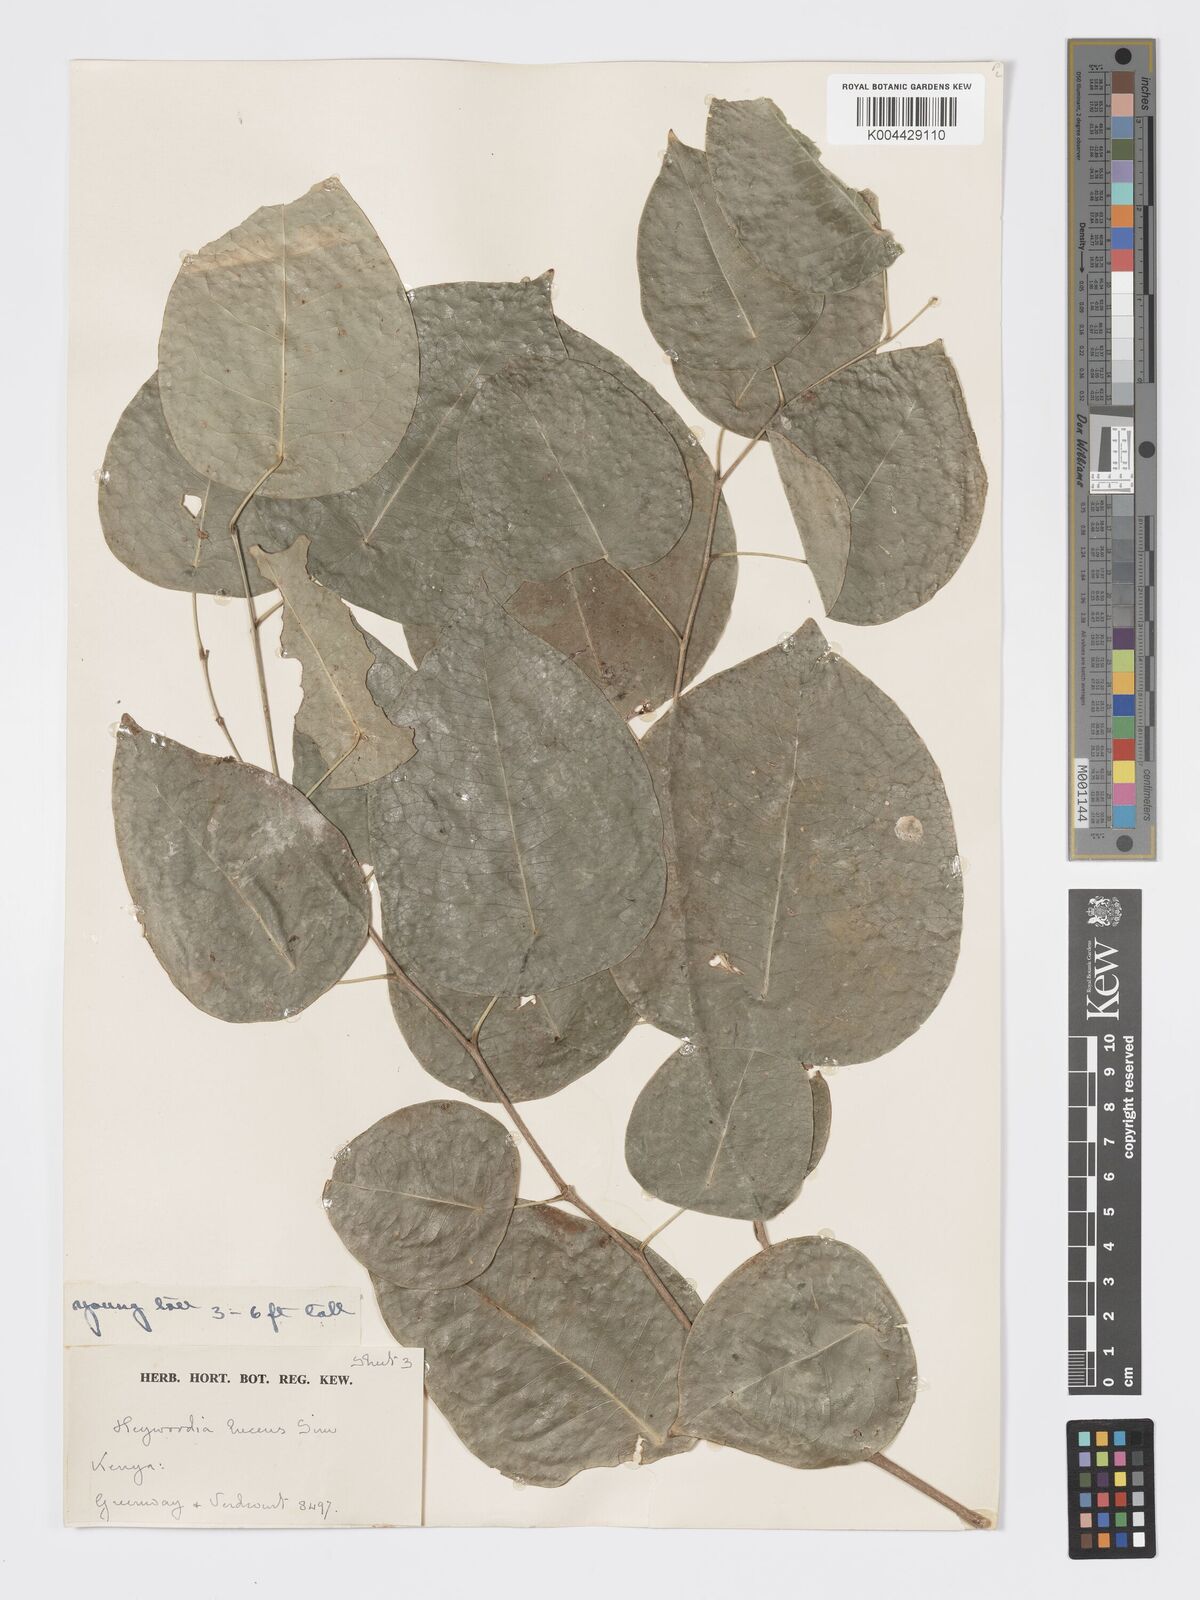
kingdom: Plantae
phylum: Tracheophyta
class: Magnoliopsida
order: Malpighiales
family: Phyllanthaceae
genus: Heywoodia
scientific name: Heywoodia lucens
